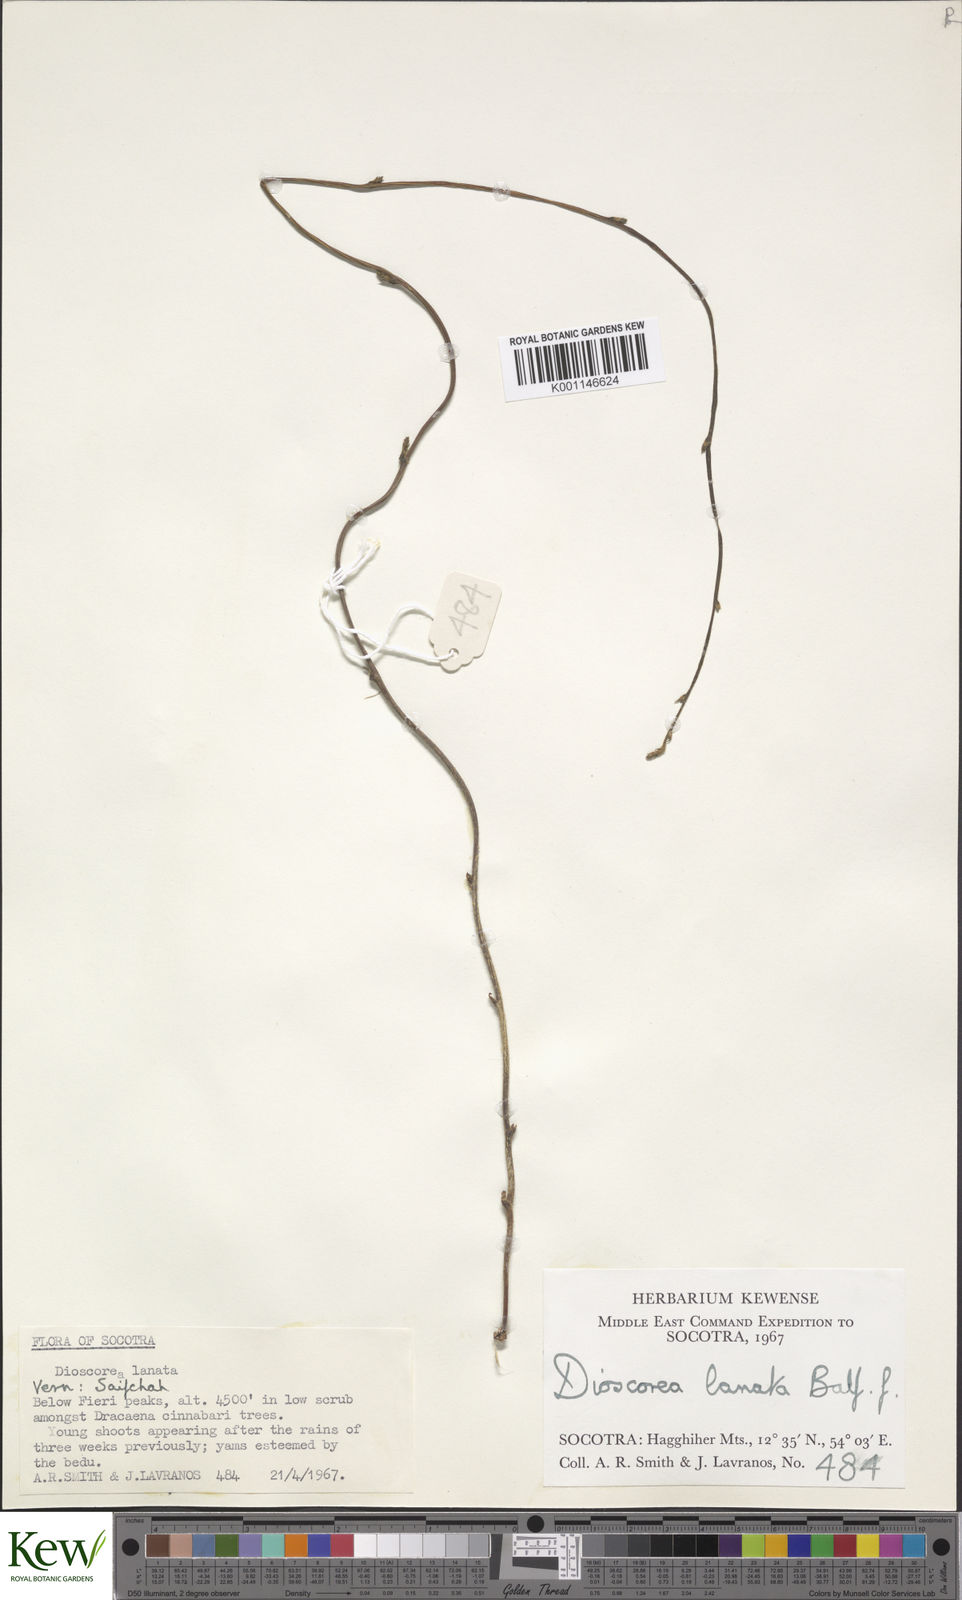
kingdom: Plantae
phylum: Tracheophyta
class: Liliopsida
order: Dioscoreales
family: Dioscoreaceae
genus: Dioscorea
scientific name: Dioscorea
